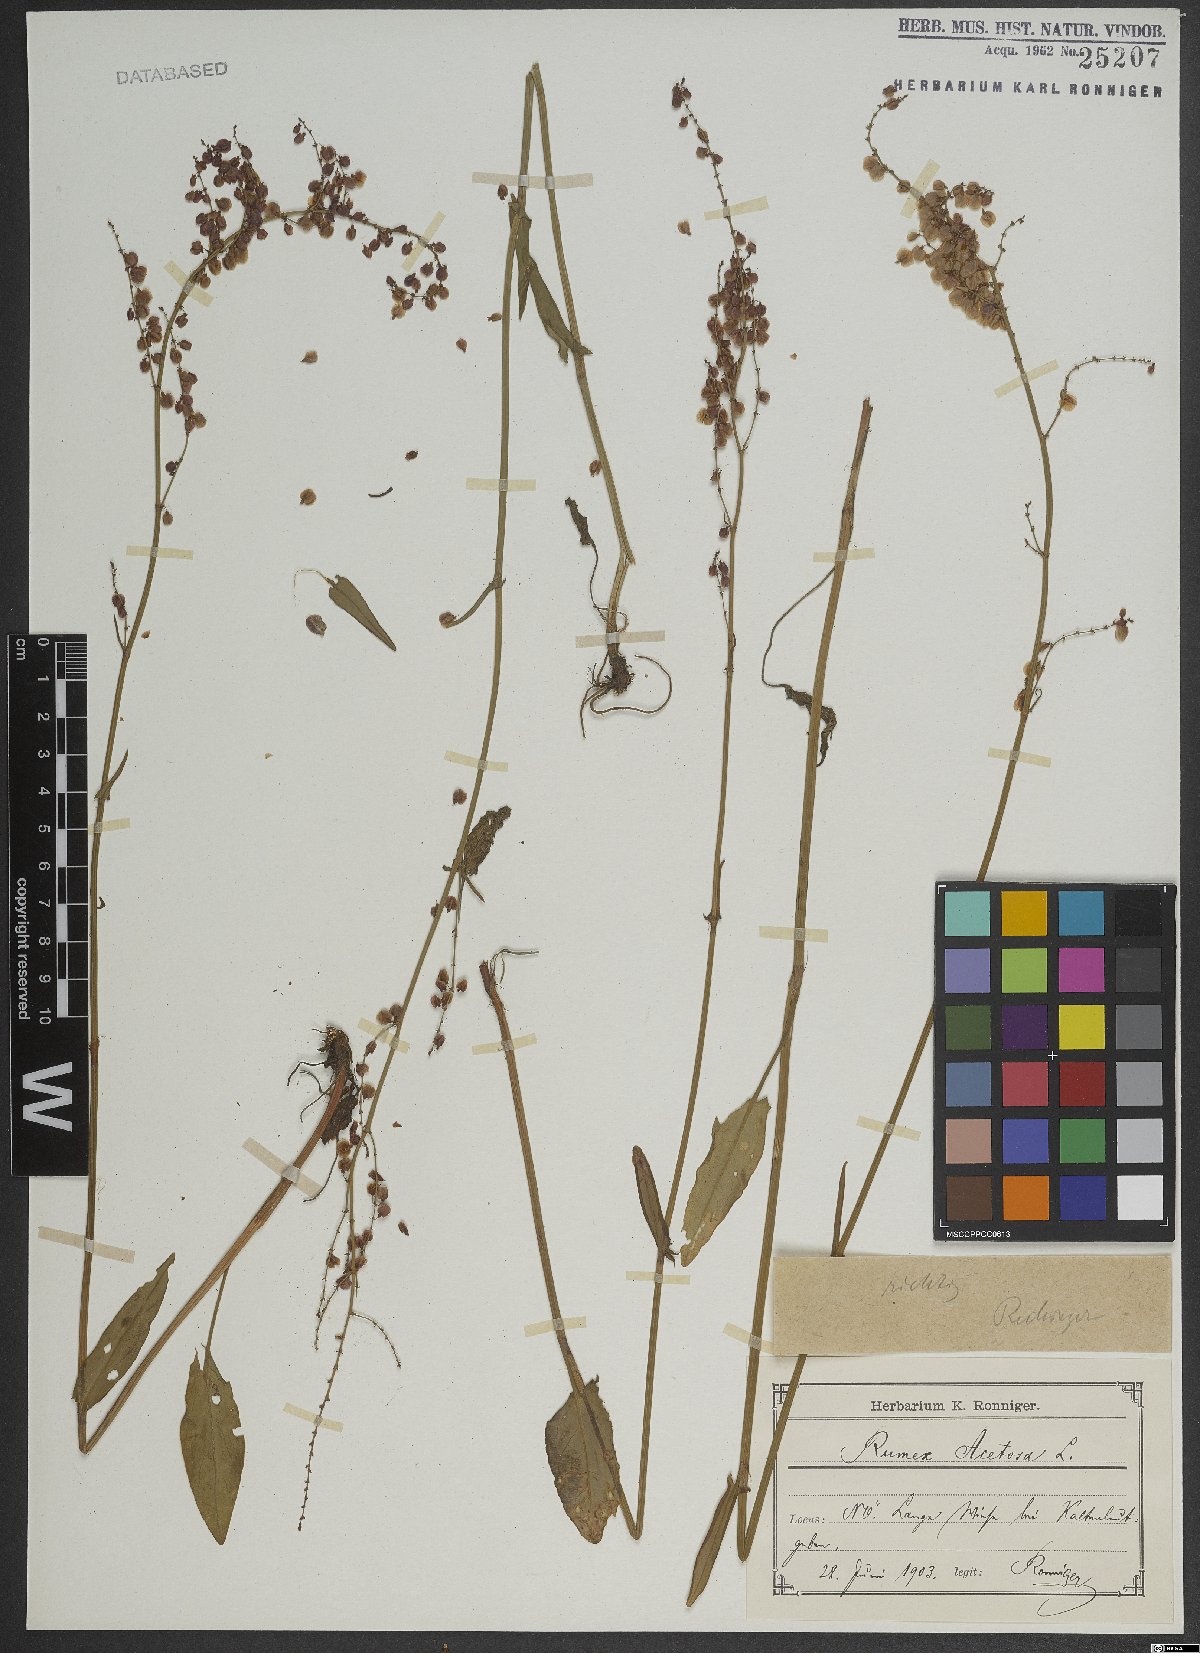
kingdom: Plantae
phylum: Tracheophyta
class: Magnoliopsida
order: Caryophyllales
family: Polygonaceae
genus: Rumex
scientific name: Rumex acetosa
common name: Garden sorrel
